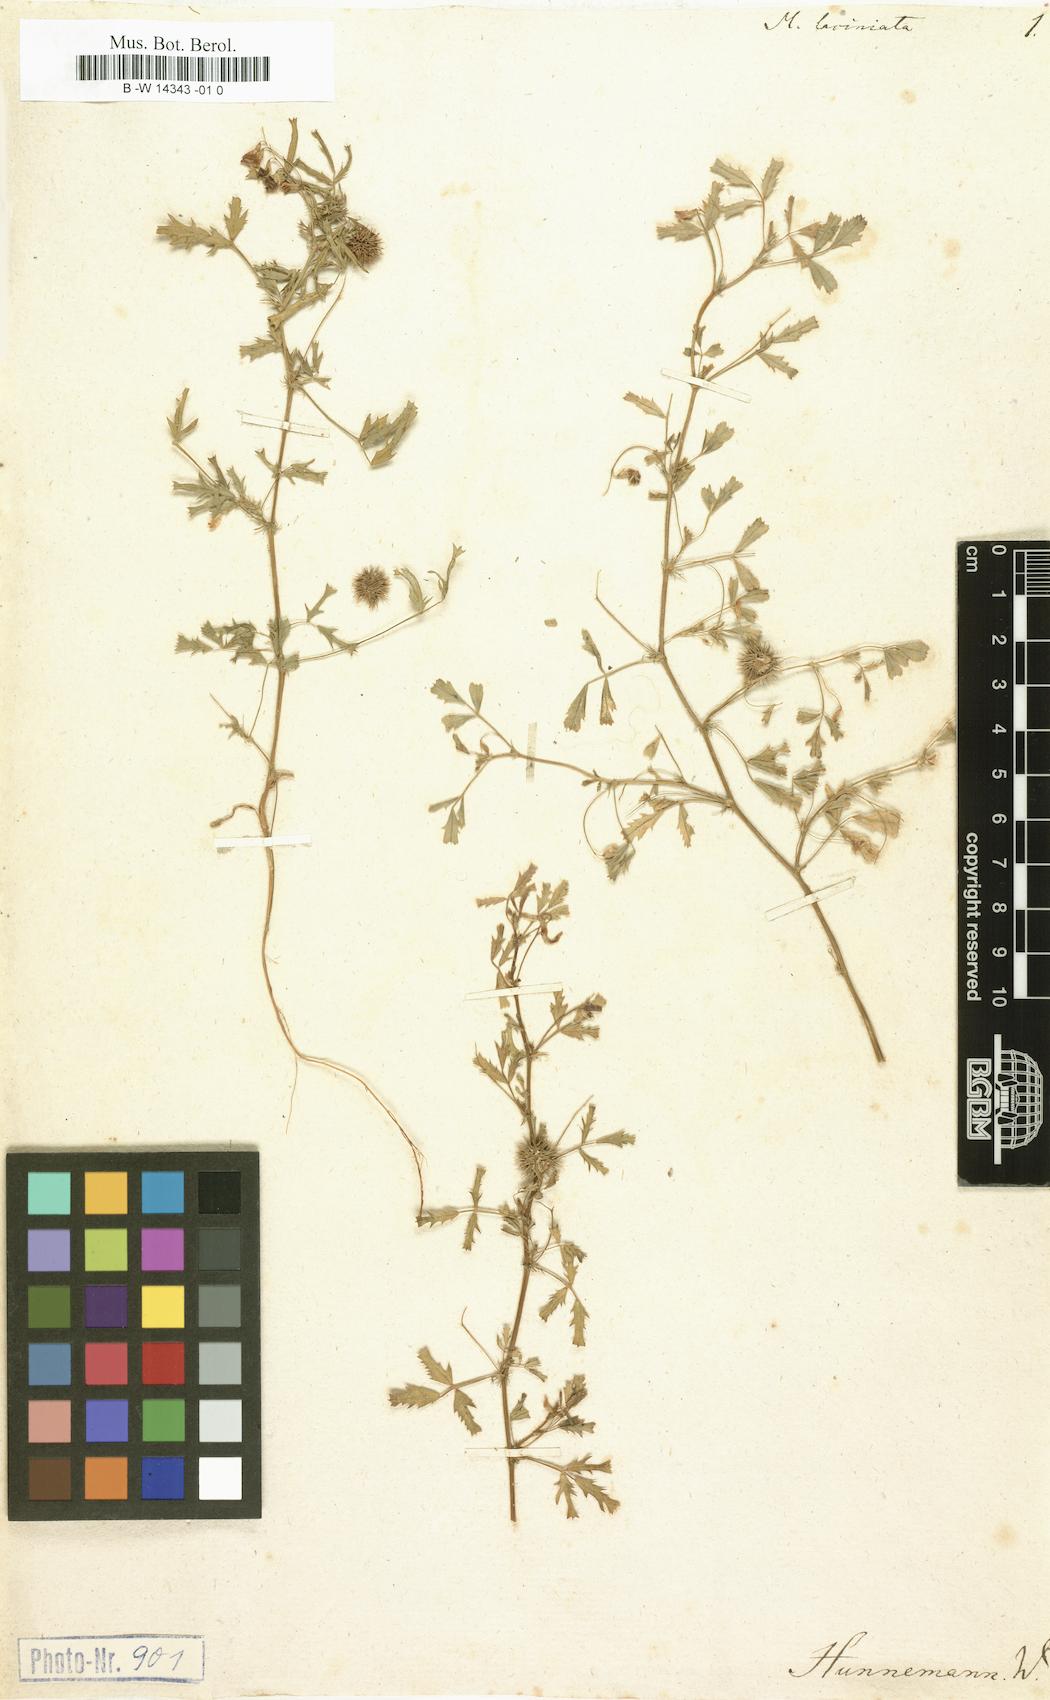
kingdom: Plantae
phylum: Tracheophyta
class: Magnoliopsida
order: Fabales
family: Fabaceae
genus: Medicago
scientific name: Medicago laciniata
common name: Tattered medick
